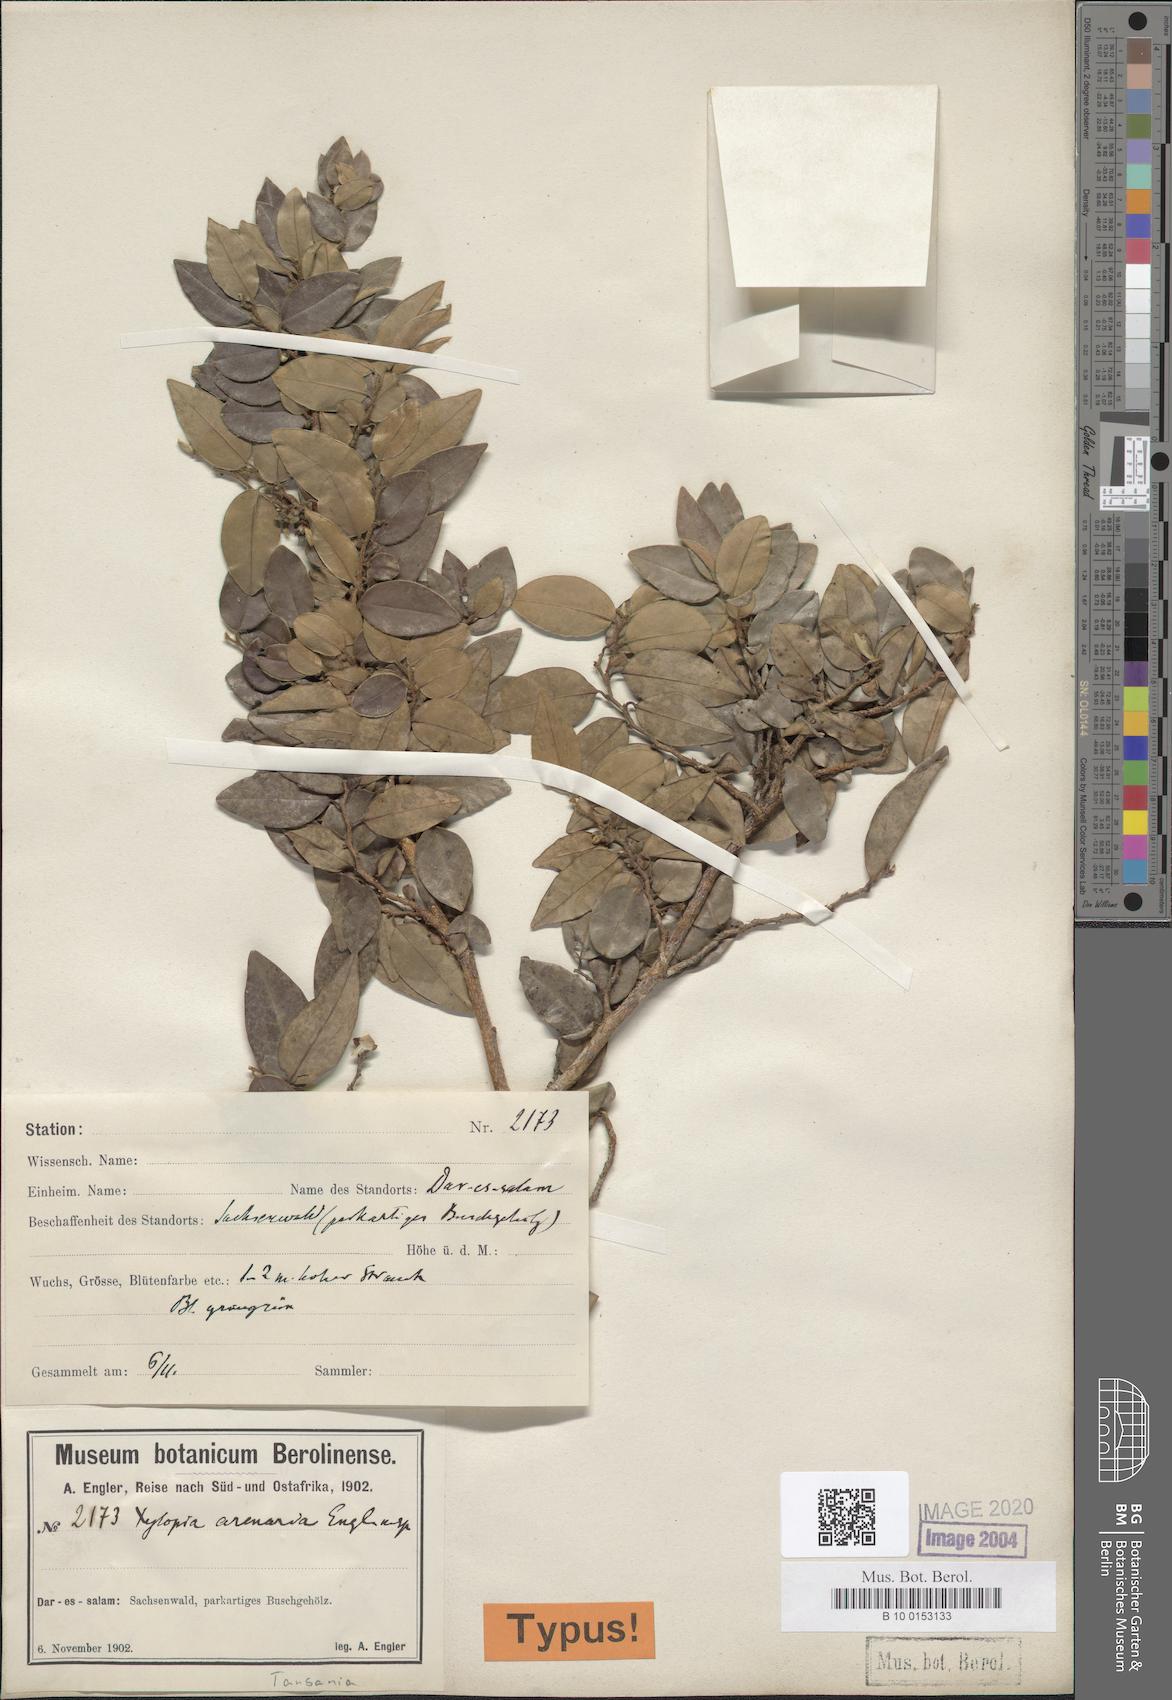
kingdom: Plantae
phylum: Tracheophyta
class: Magnoliopsida
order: Magnoliales
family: Annonaceae
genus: Xylopia
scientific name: Xylopia arenaria
